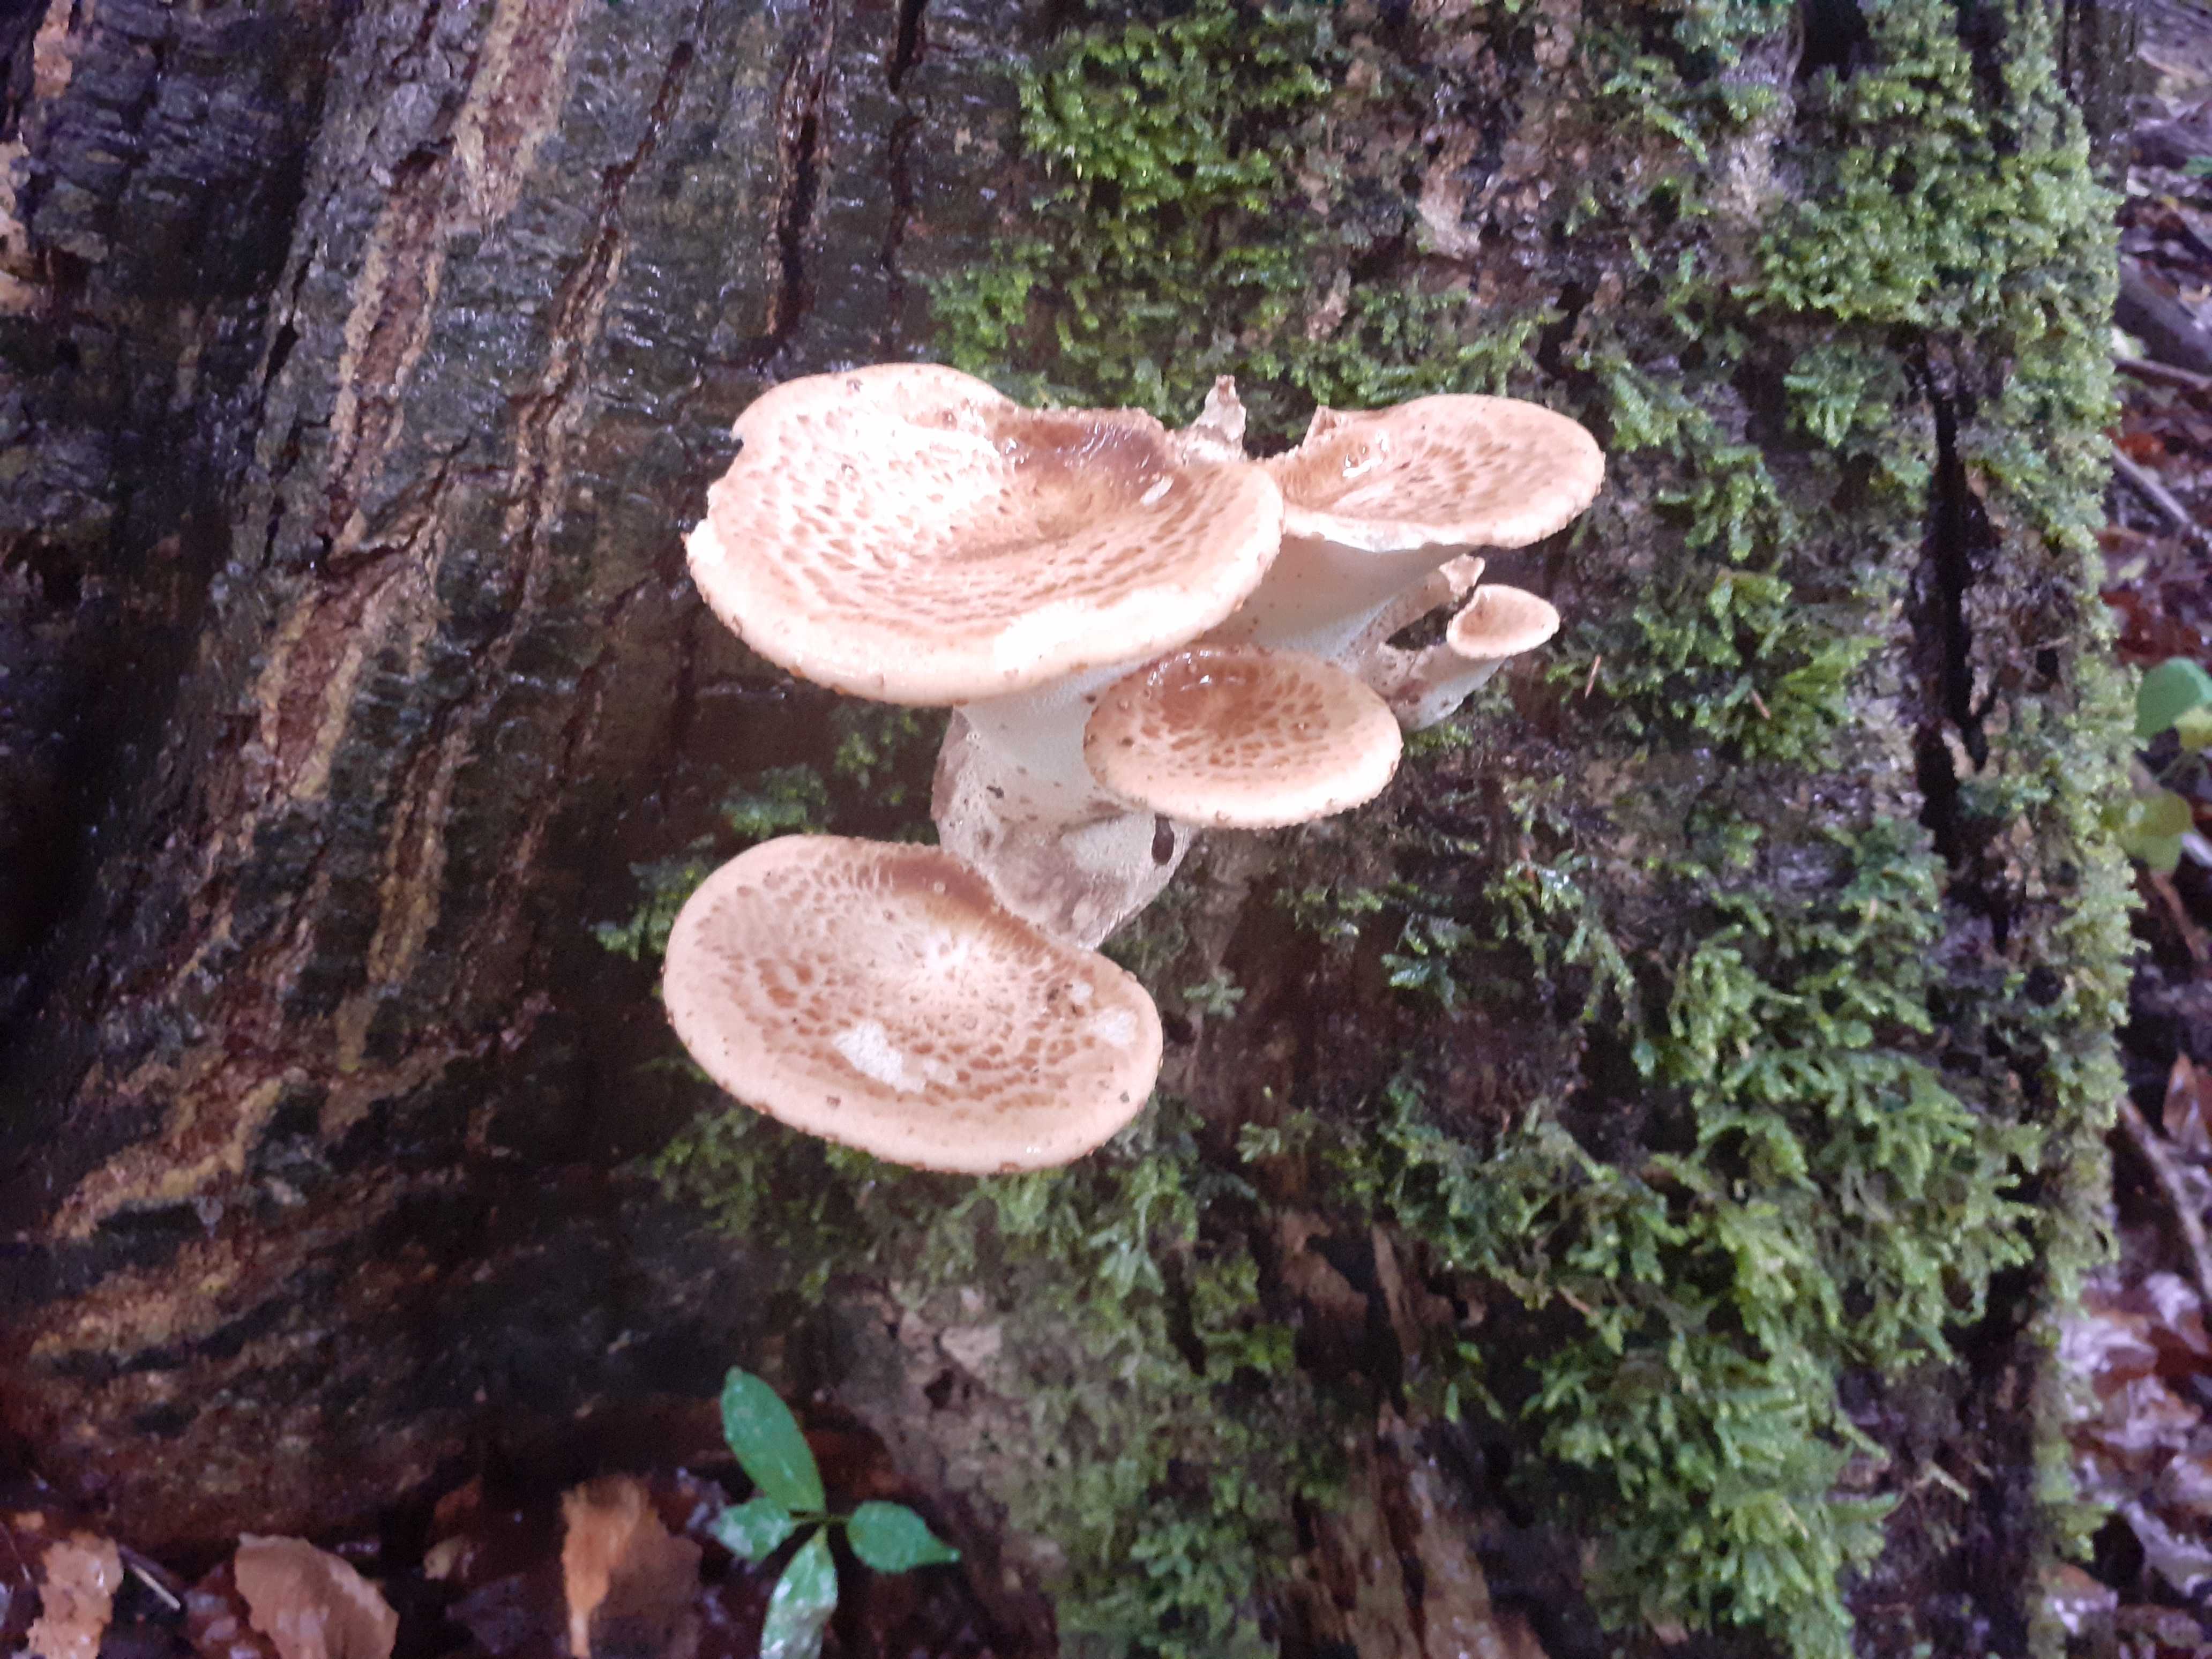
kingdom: Fungi
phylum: Basidiomycota
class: Agaricomycetes
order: Polyporales
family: Polyporaceae
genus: Cerioporus
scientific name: Cerioporus squamosus
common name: skællet stilkporesvamp
